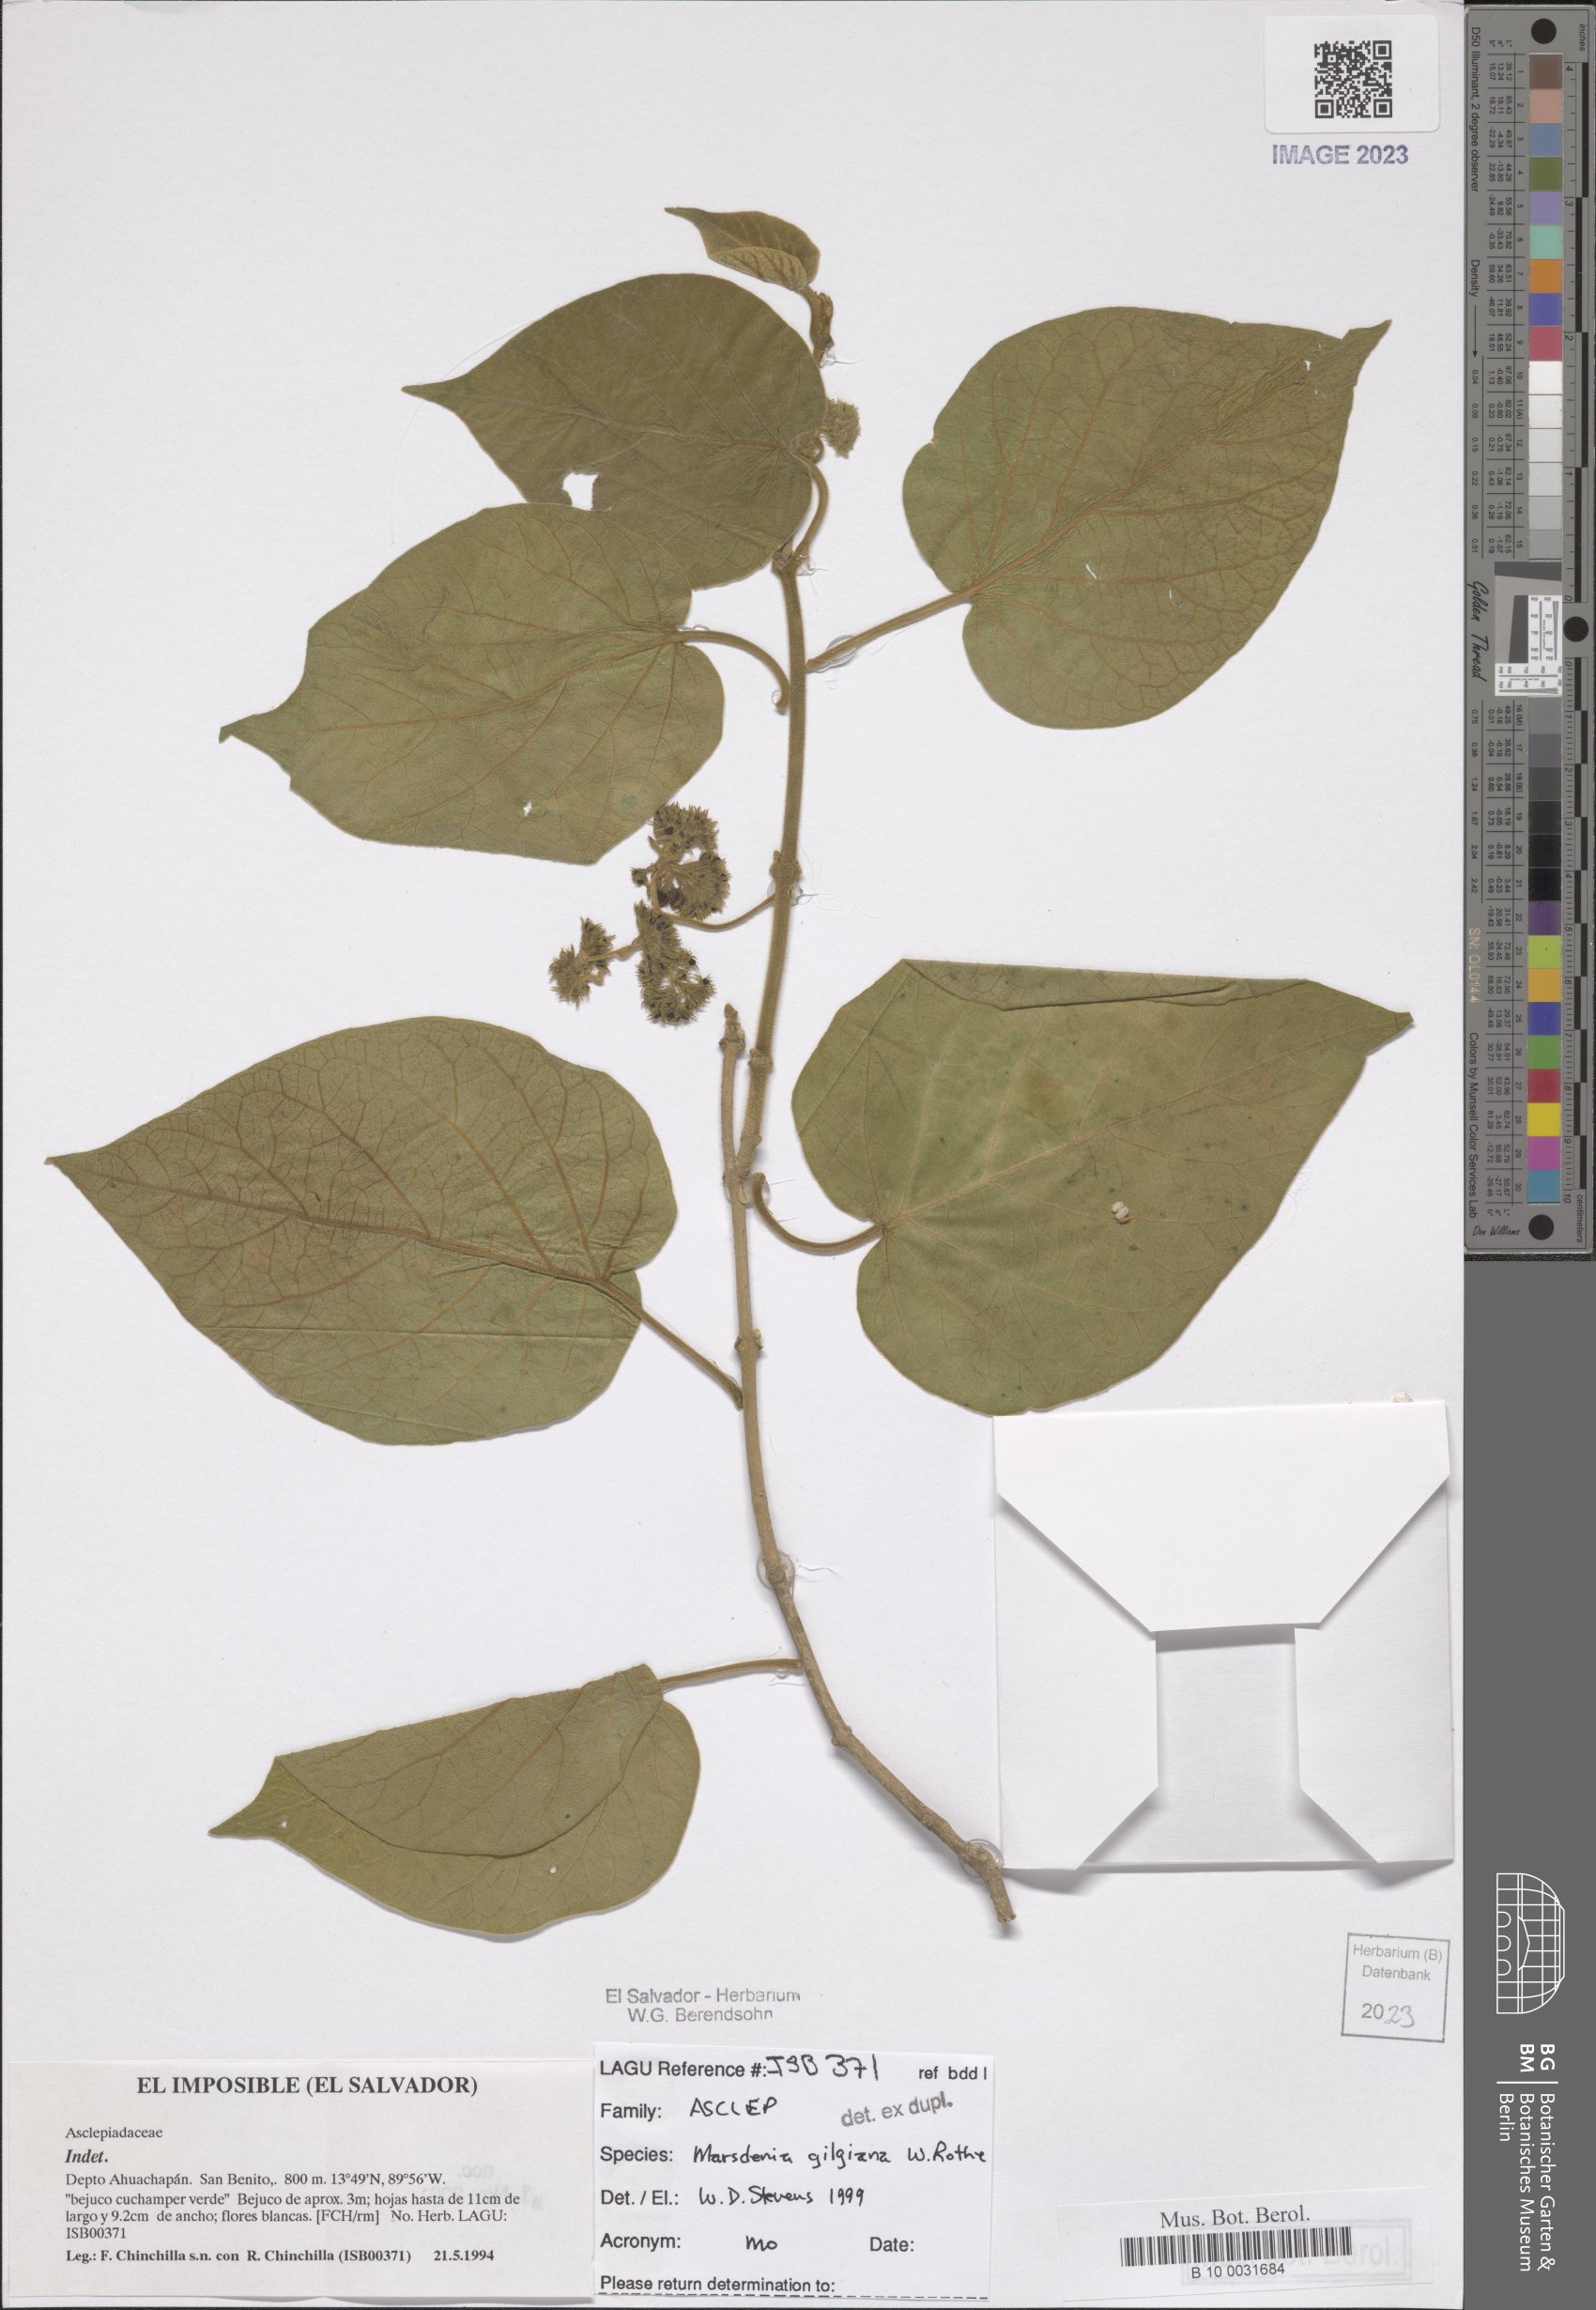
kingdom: Plantae
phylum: Tracheophyta
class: Magnoliopsida
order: Gentianales
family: Apocynaceae
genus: Ruehssia
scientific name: Ruehssia gilgiana
